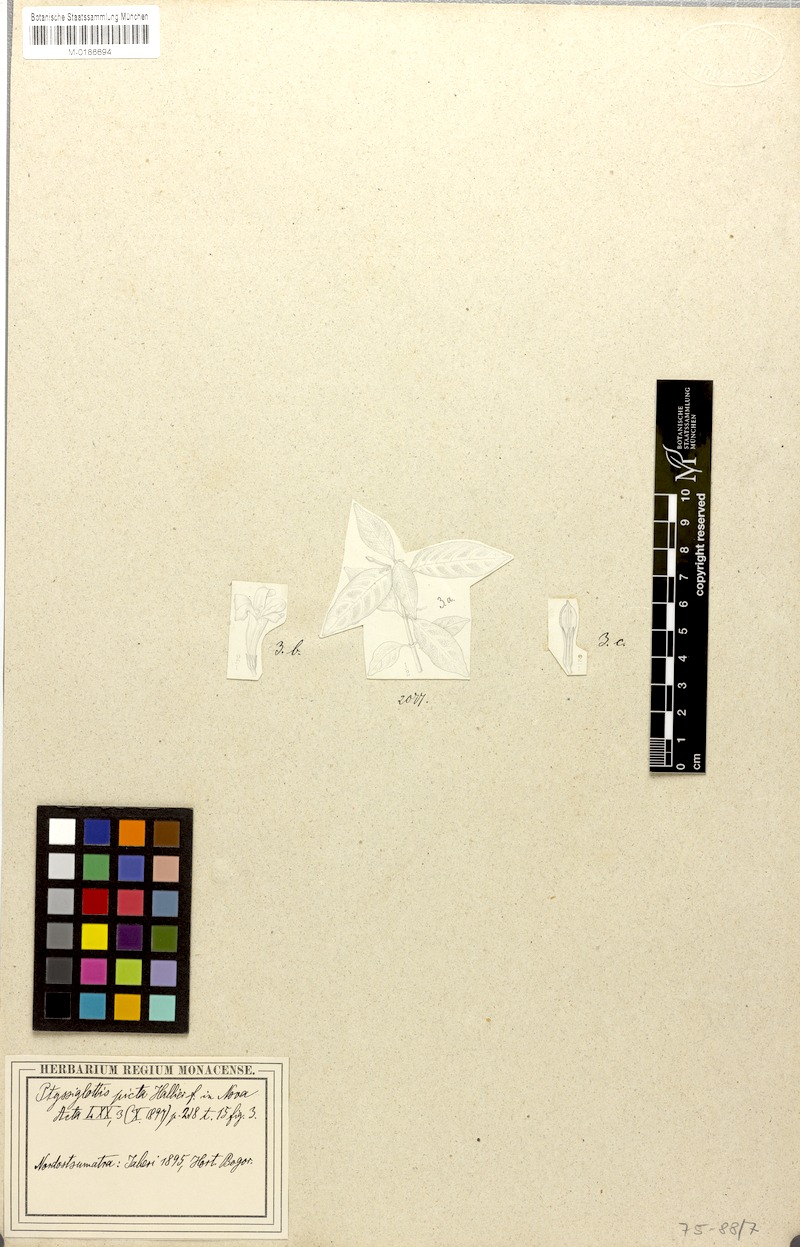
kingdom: Plantae
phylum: Tracheophyta
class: Magnoliopsida
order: Lamiales
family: Acanthaceae
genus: Ptyssiglottis
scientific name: Ptyssiglottis picta
